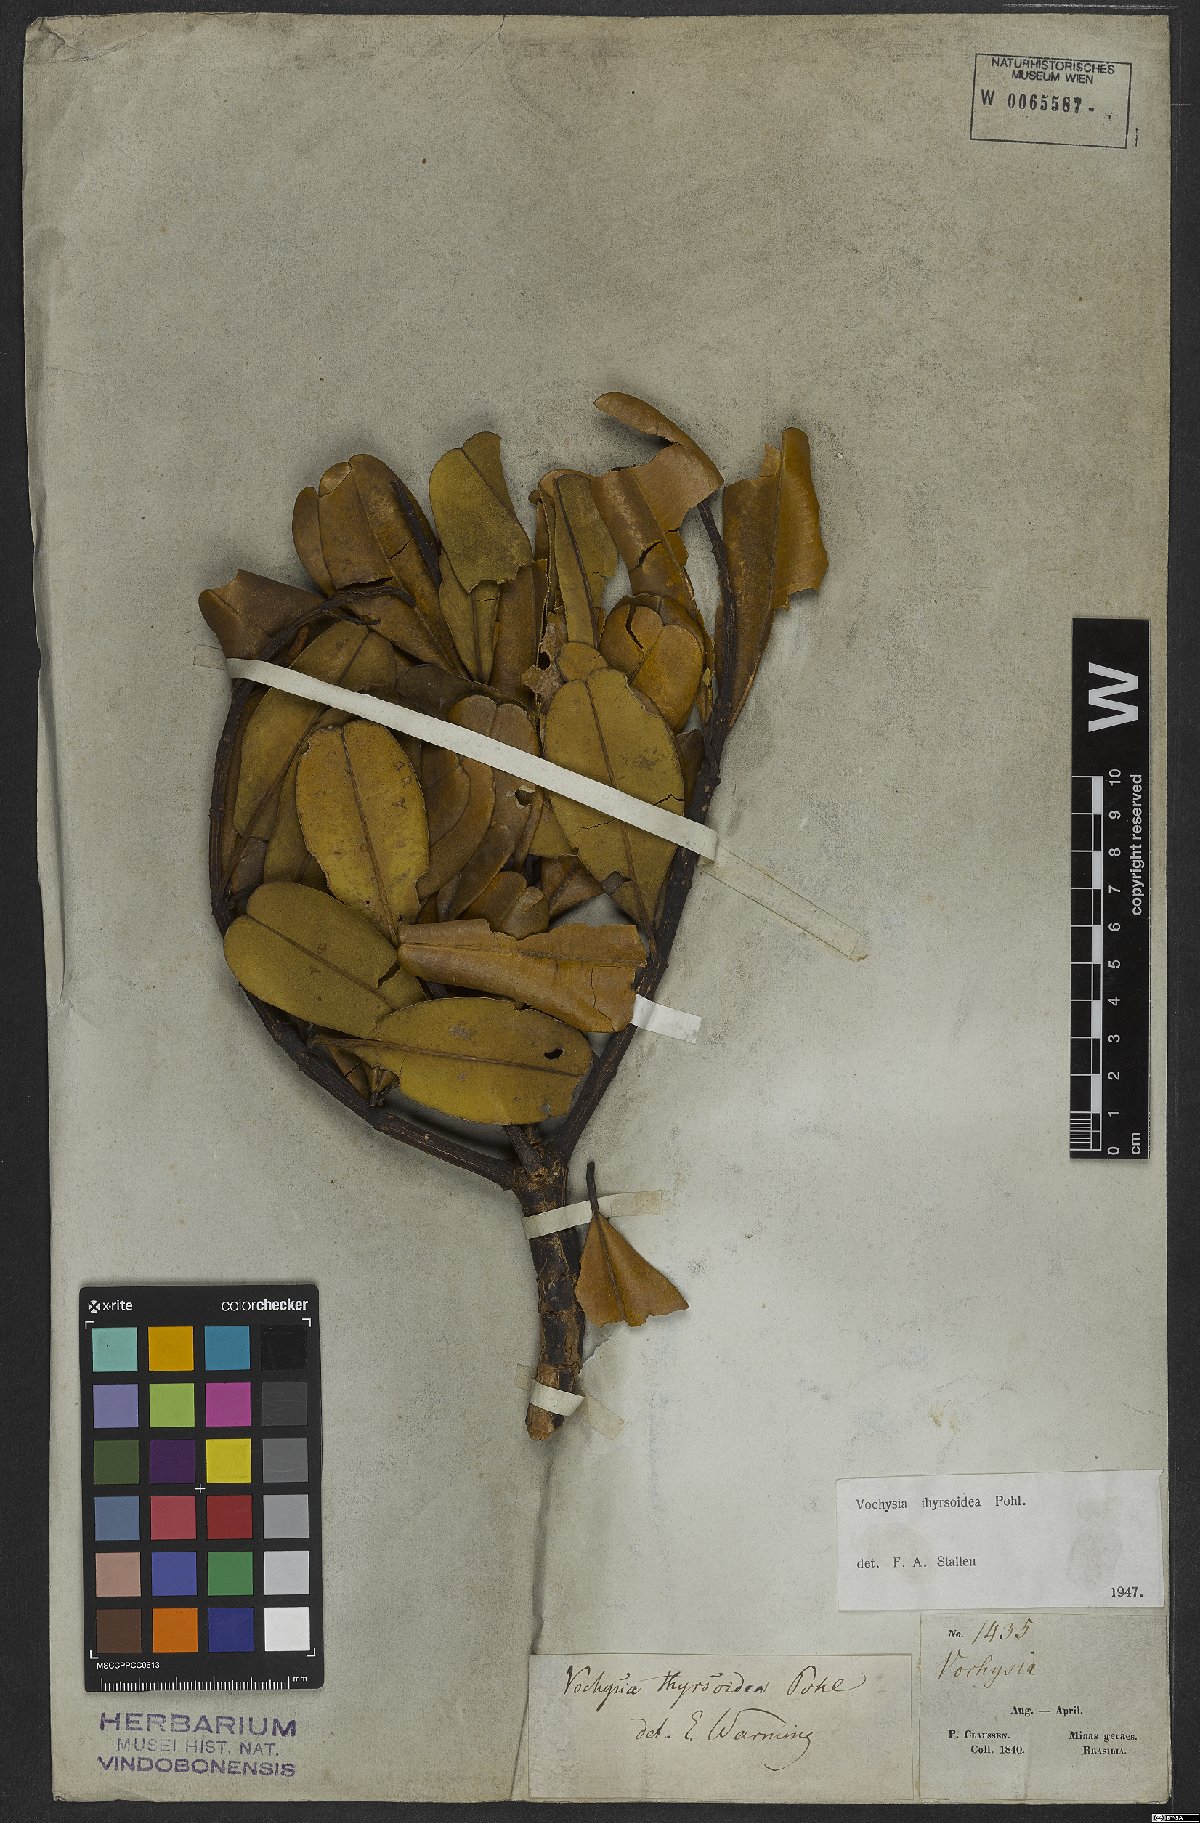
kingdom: Plantae
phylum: Tracheophyta
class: Magnoliopsida
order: Myrtales
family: Vochysiaceae
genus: Vochysia
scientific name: Vochysia thyrsoidea
